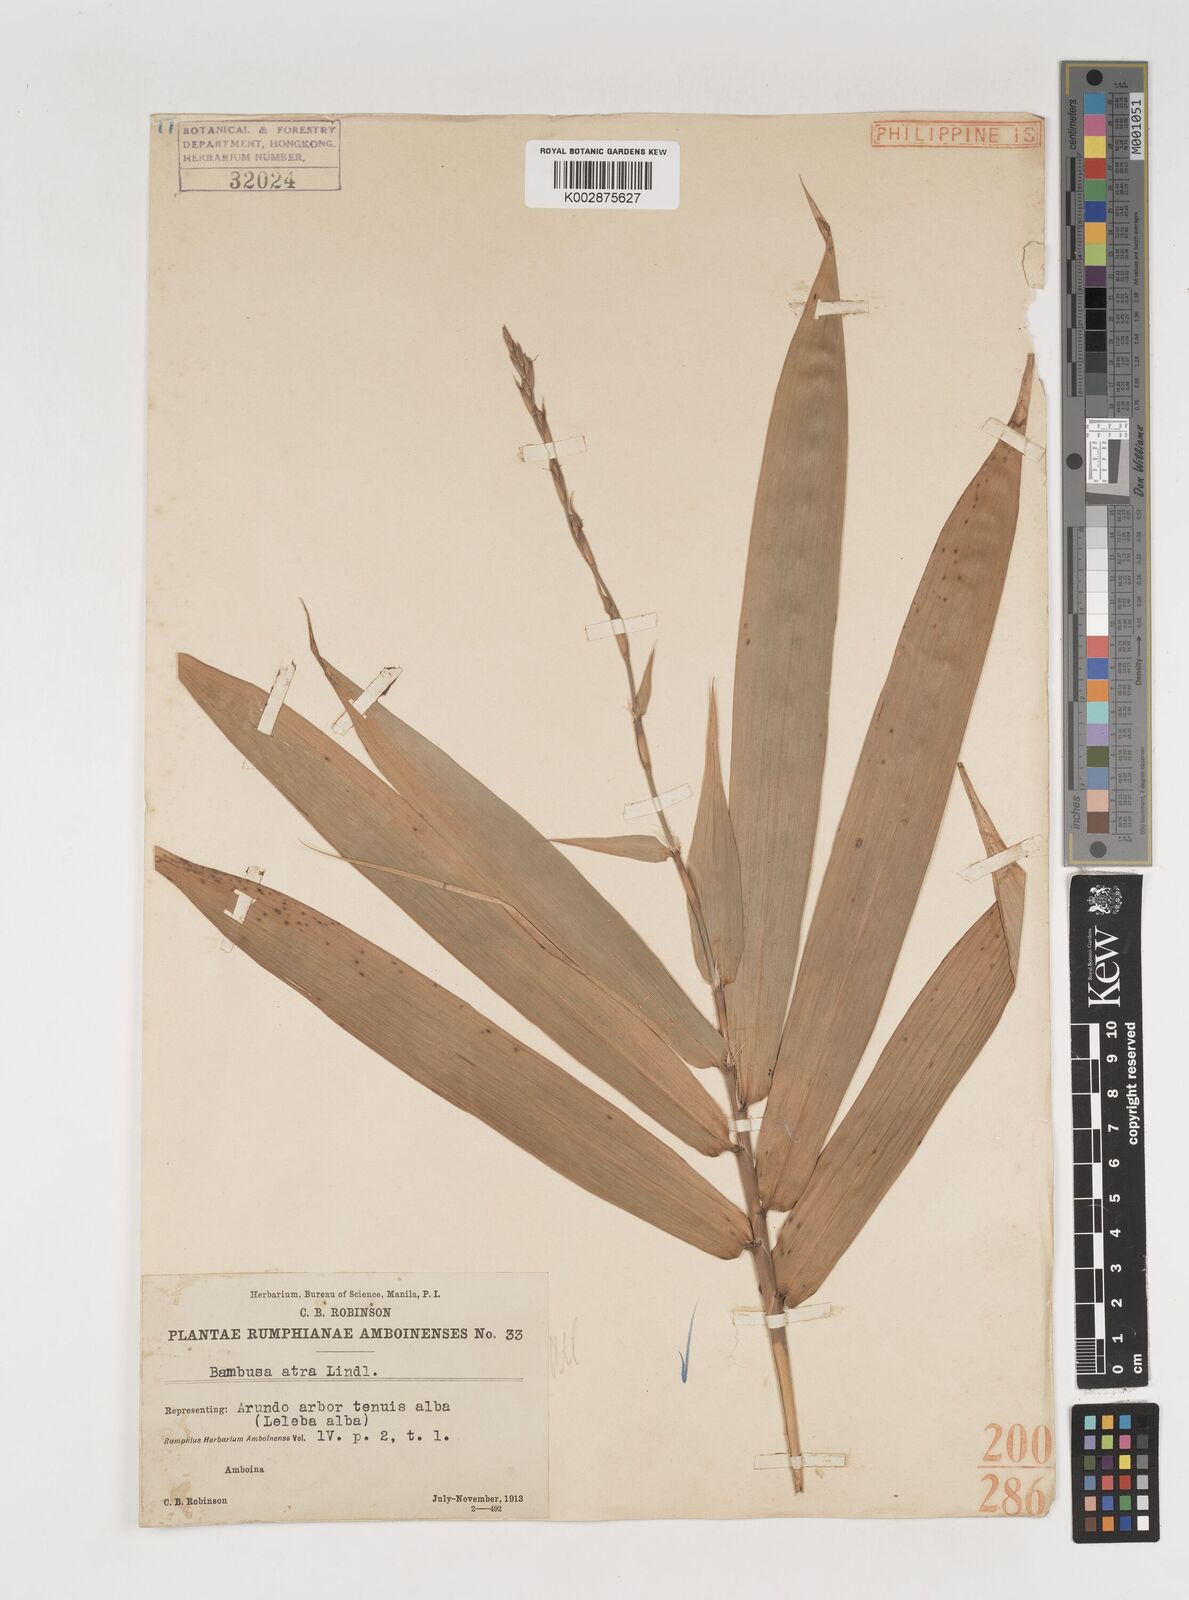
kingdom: Plantae
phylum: Tracheophyta
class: Liliopsida
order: Poales
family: Poaceae
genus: Neololeba
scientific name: Neololeba atra
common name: Cape bamboo
